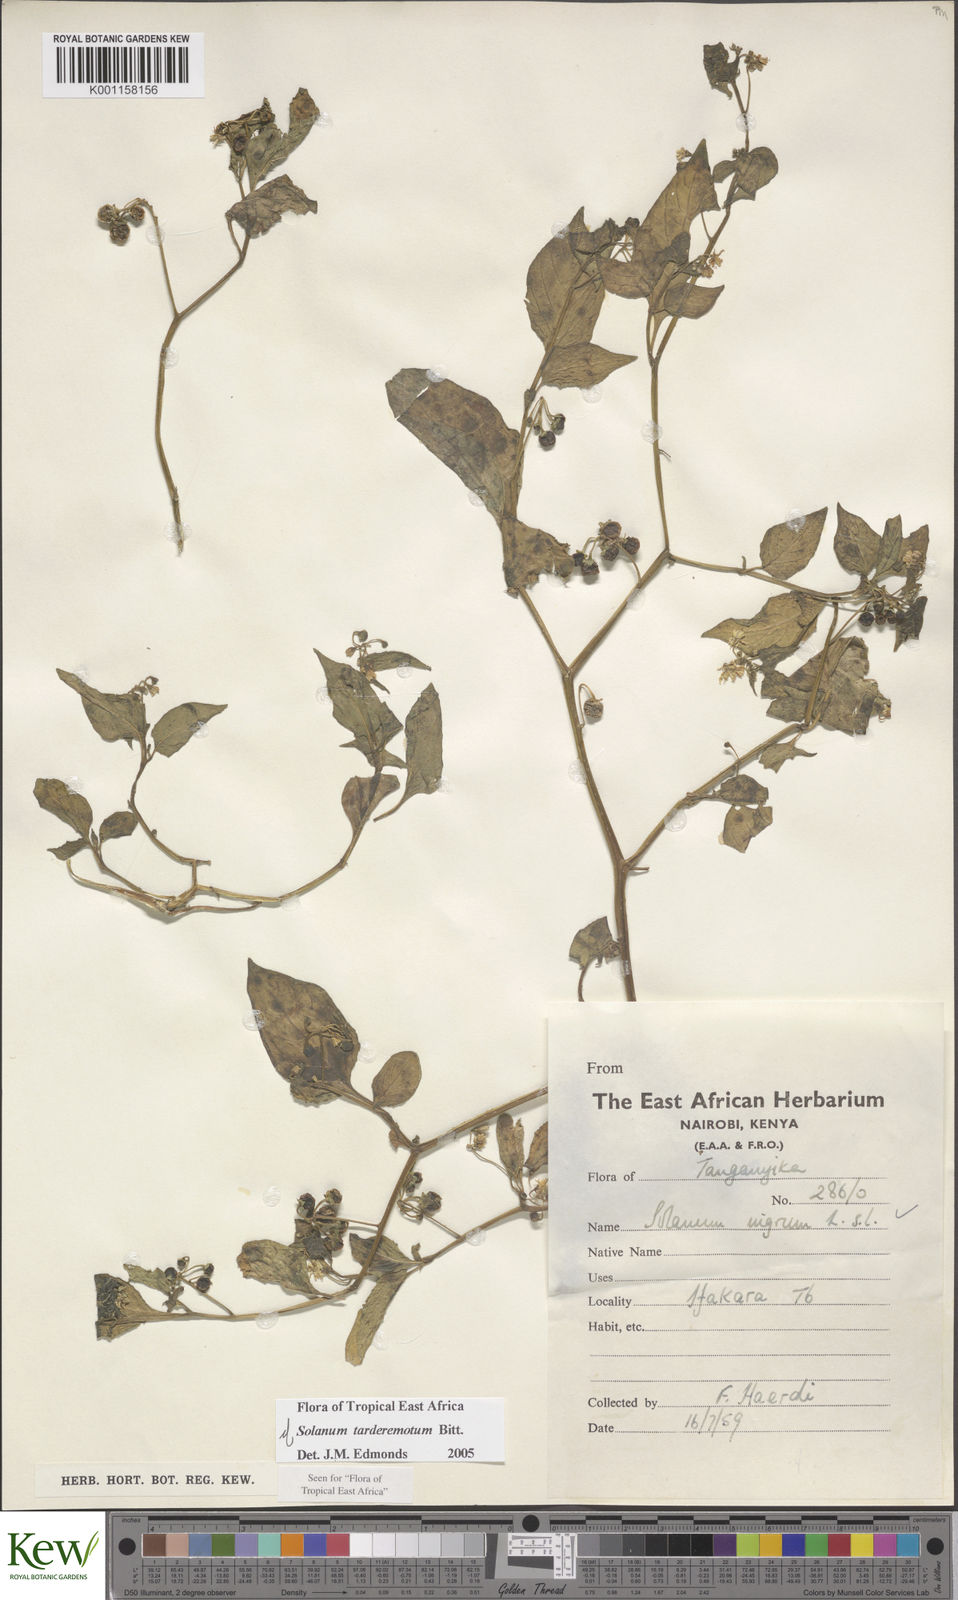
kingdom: Plantae
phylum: Tracheophyta
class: Magnoliopsida
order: Solanales
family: Solanaceae
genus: Solanum
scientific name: Solanum tarderemotum
